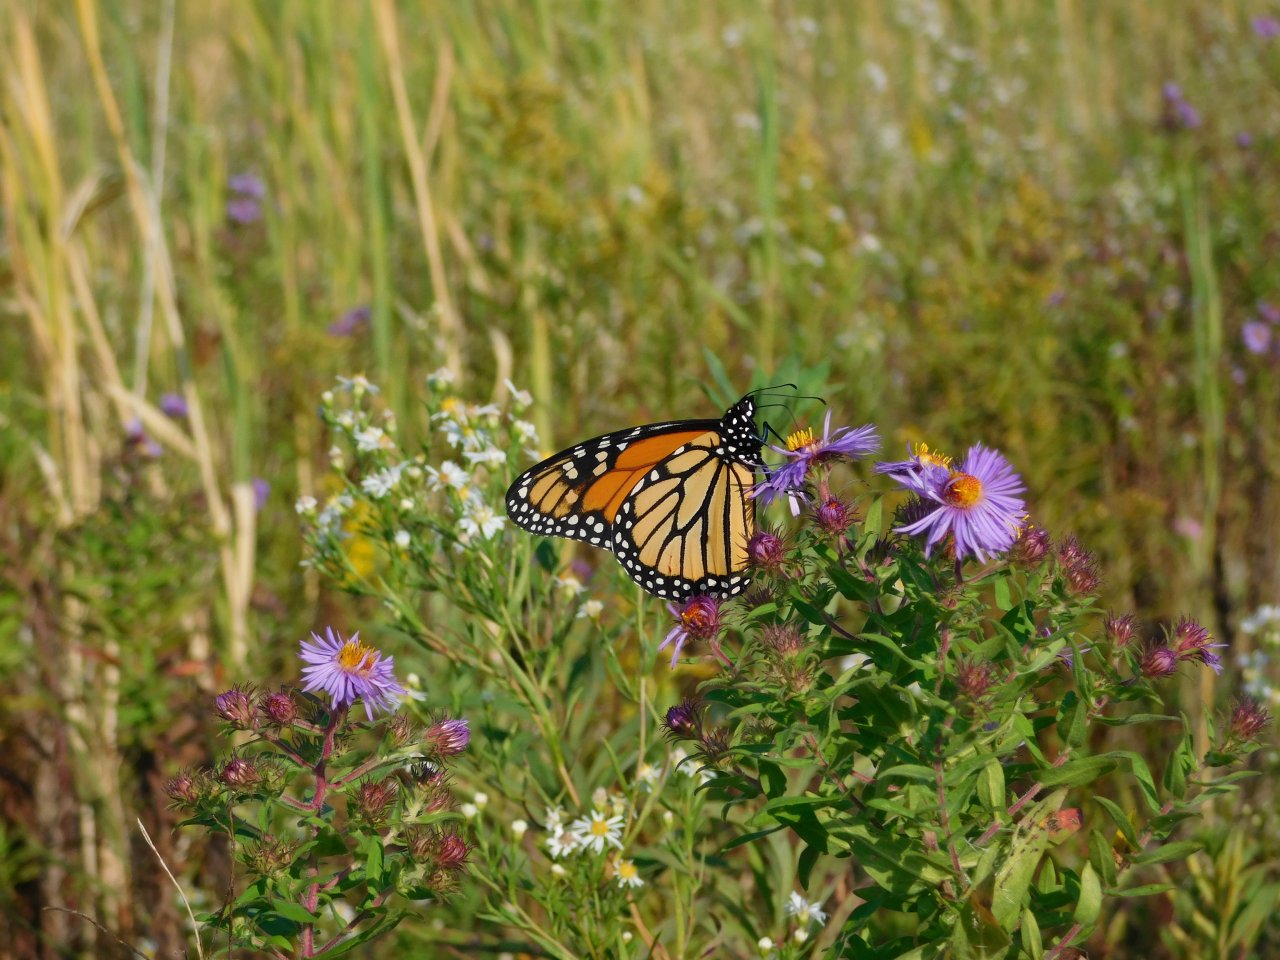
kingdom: Animalia
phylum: Arthropoda
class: Insecta
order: Lepidoptera
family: Nymphalidae
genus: Danaus
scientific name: Danaus plexippus
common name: Monarch
